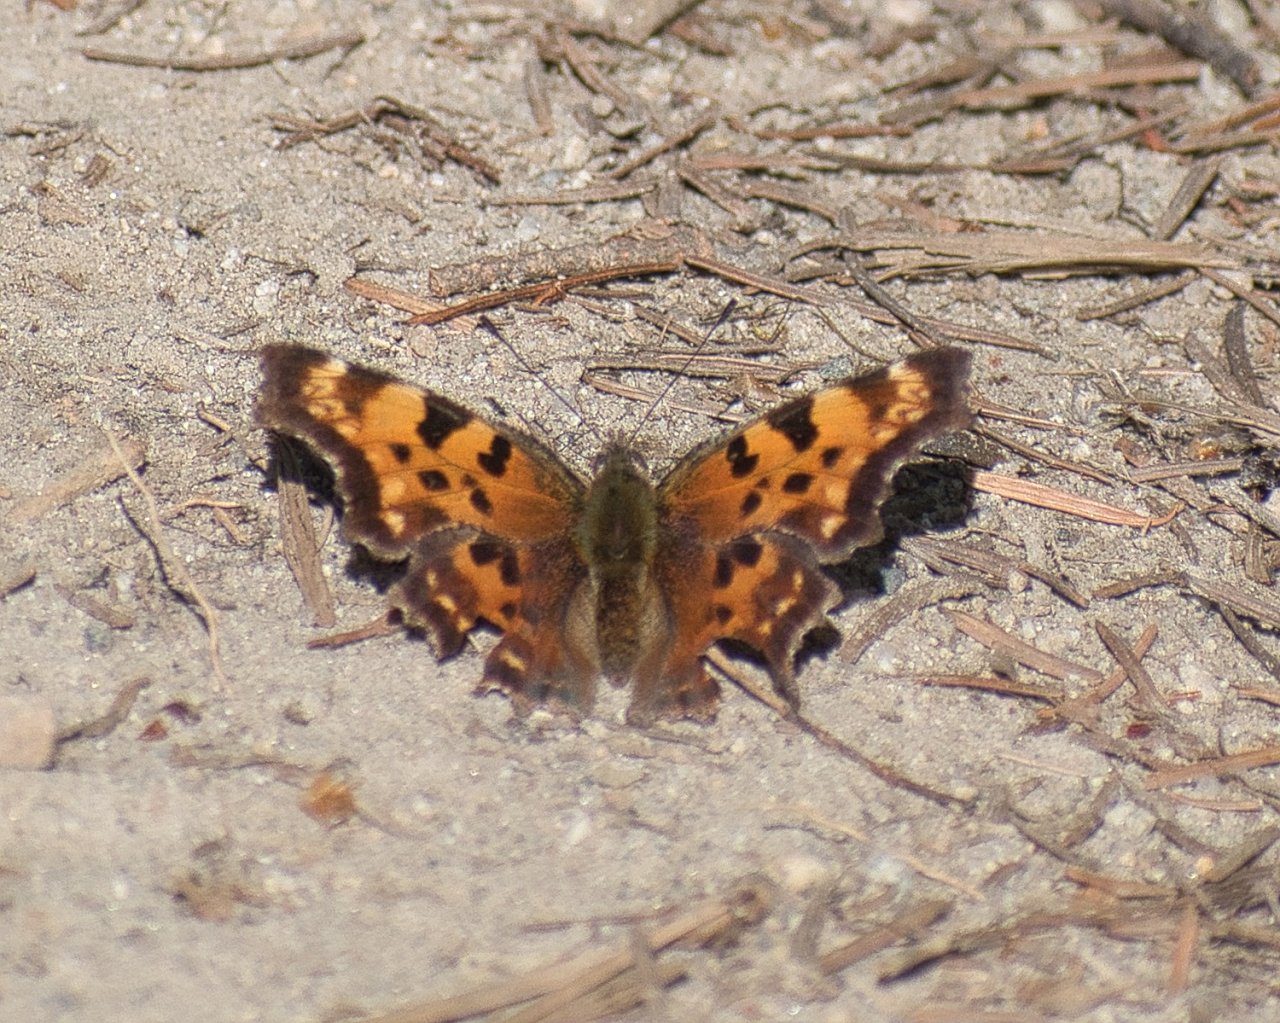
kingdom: Animalia
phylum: Arthropoda
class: Insecta
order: Lepidoptera
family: Nymphalidae
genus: Polygonia
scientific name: Polygonia faunus
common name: Green Comma
